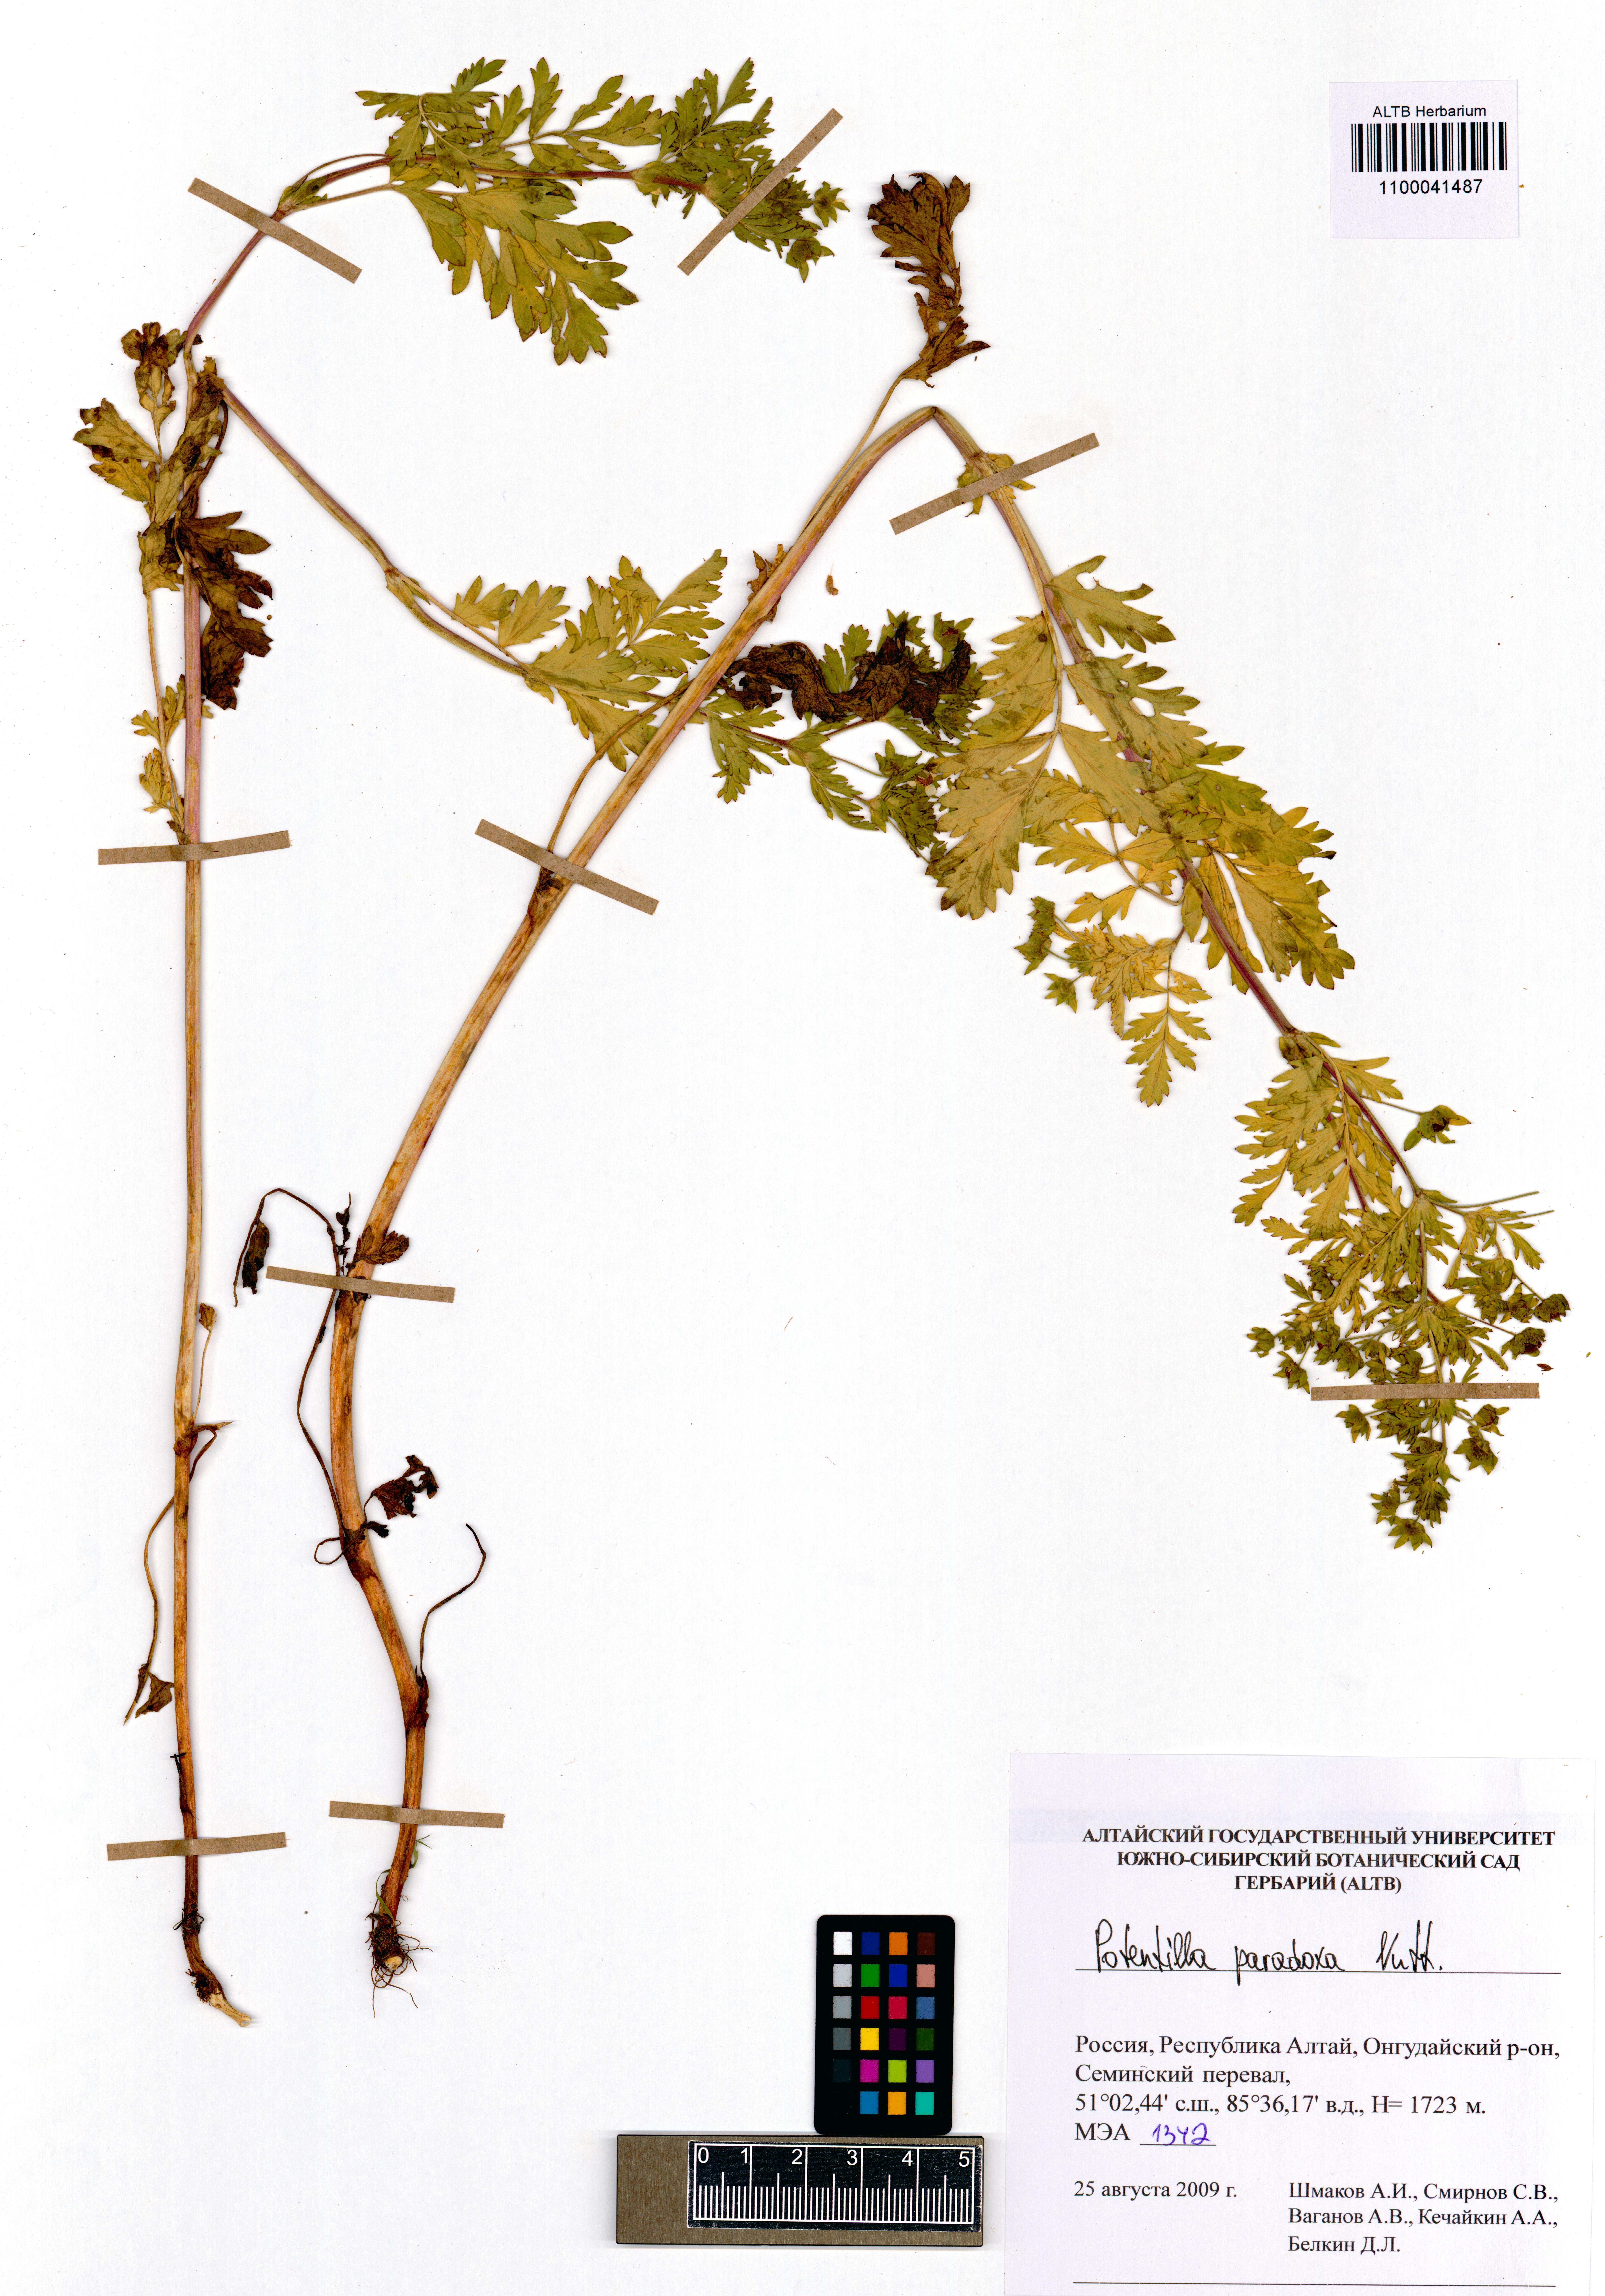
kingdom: Plantae
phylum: Tracheophyta
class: Magnoliopsida
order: Rosales
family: Rosaceae
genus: Potentilla
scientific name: Potentilla supina
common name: Prostrate cinquefoil
